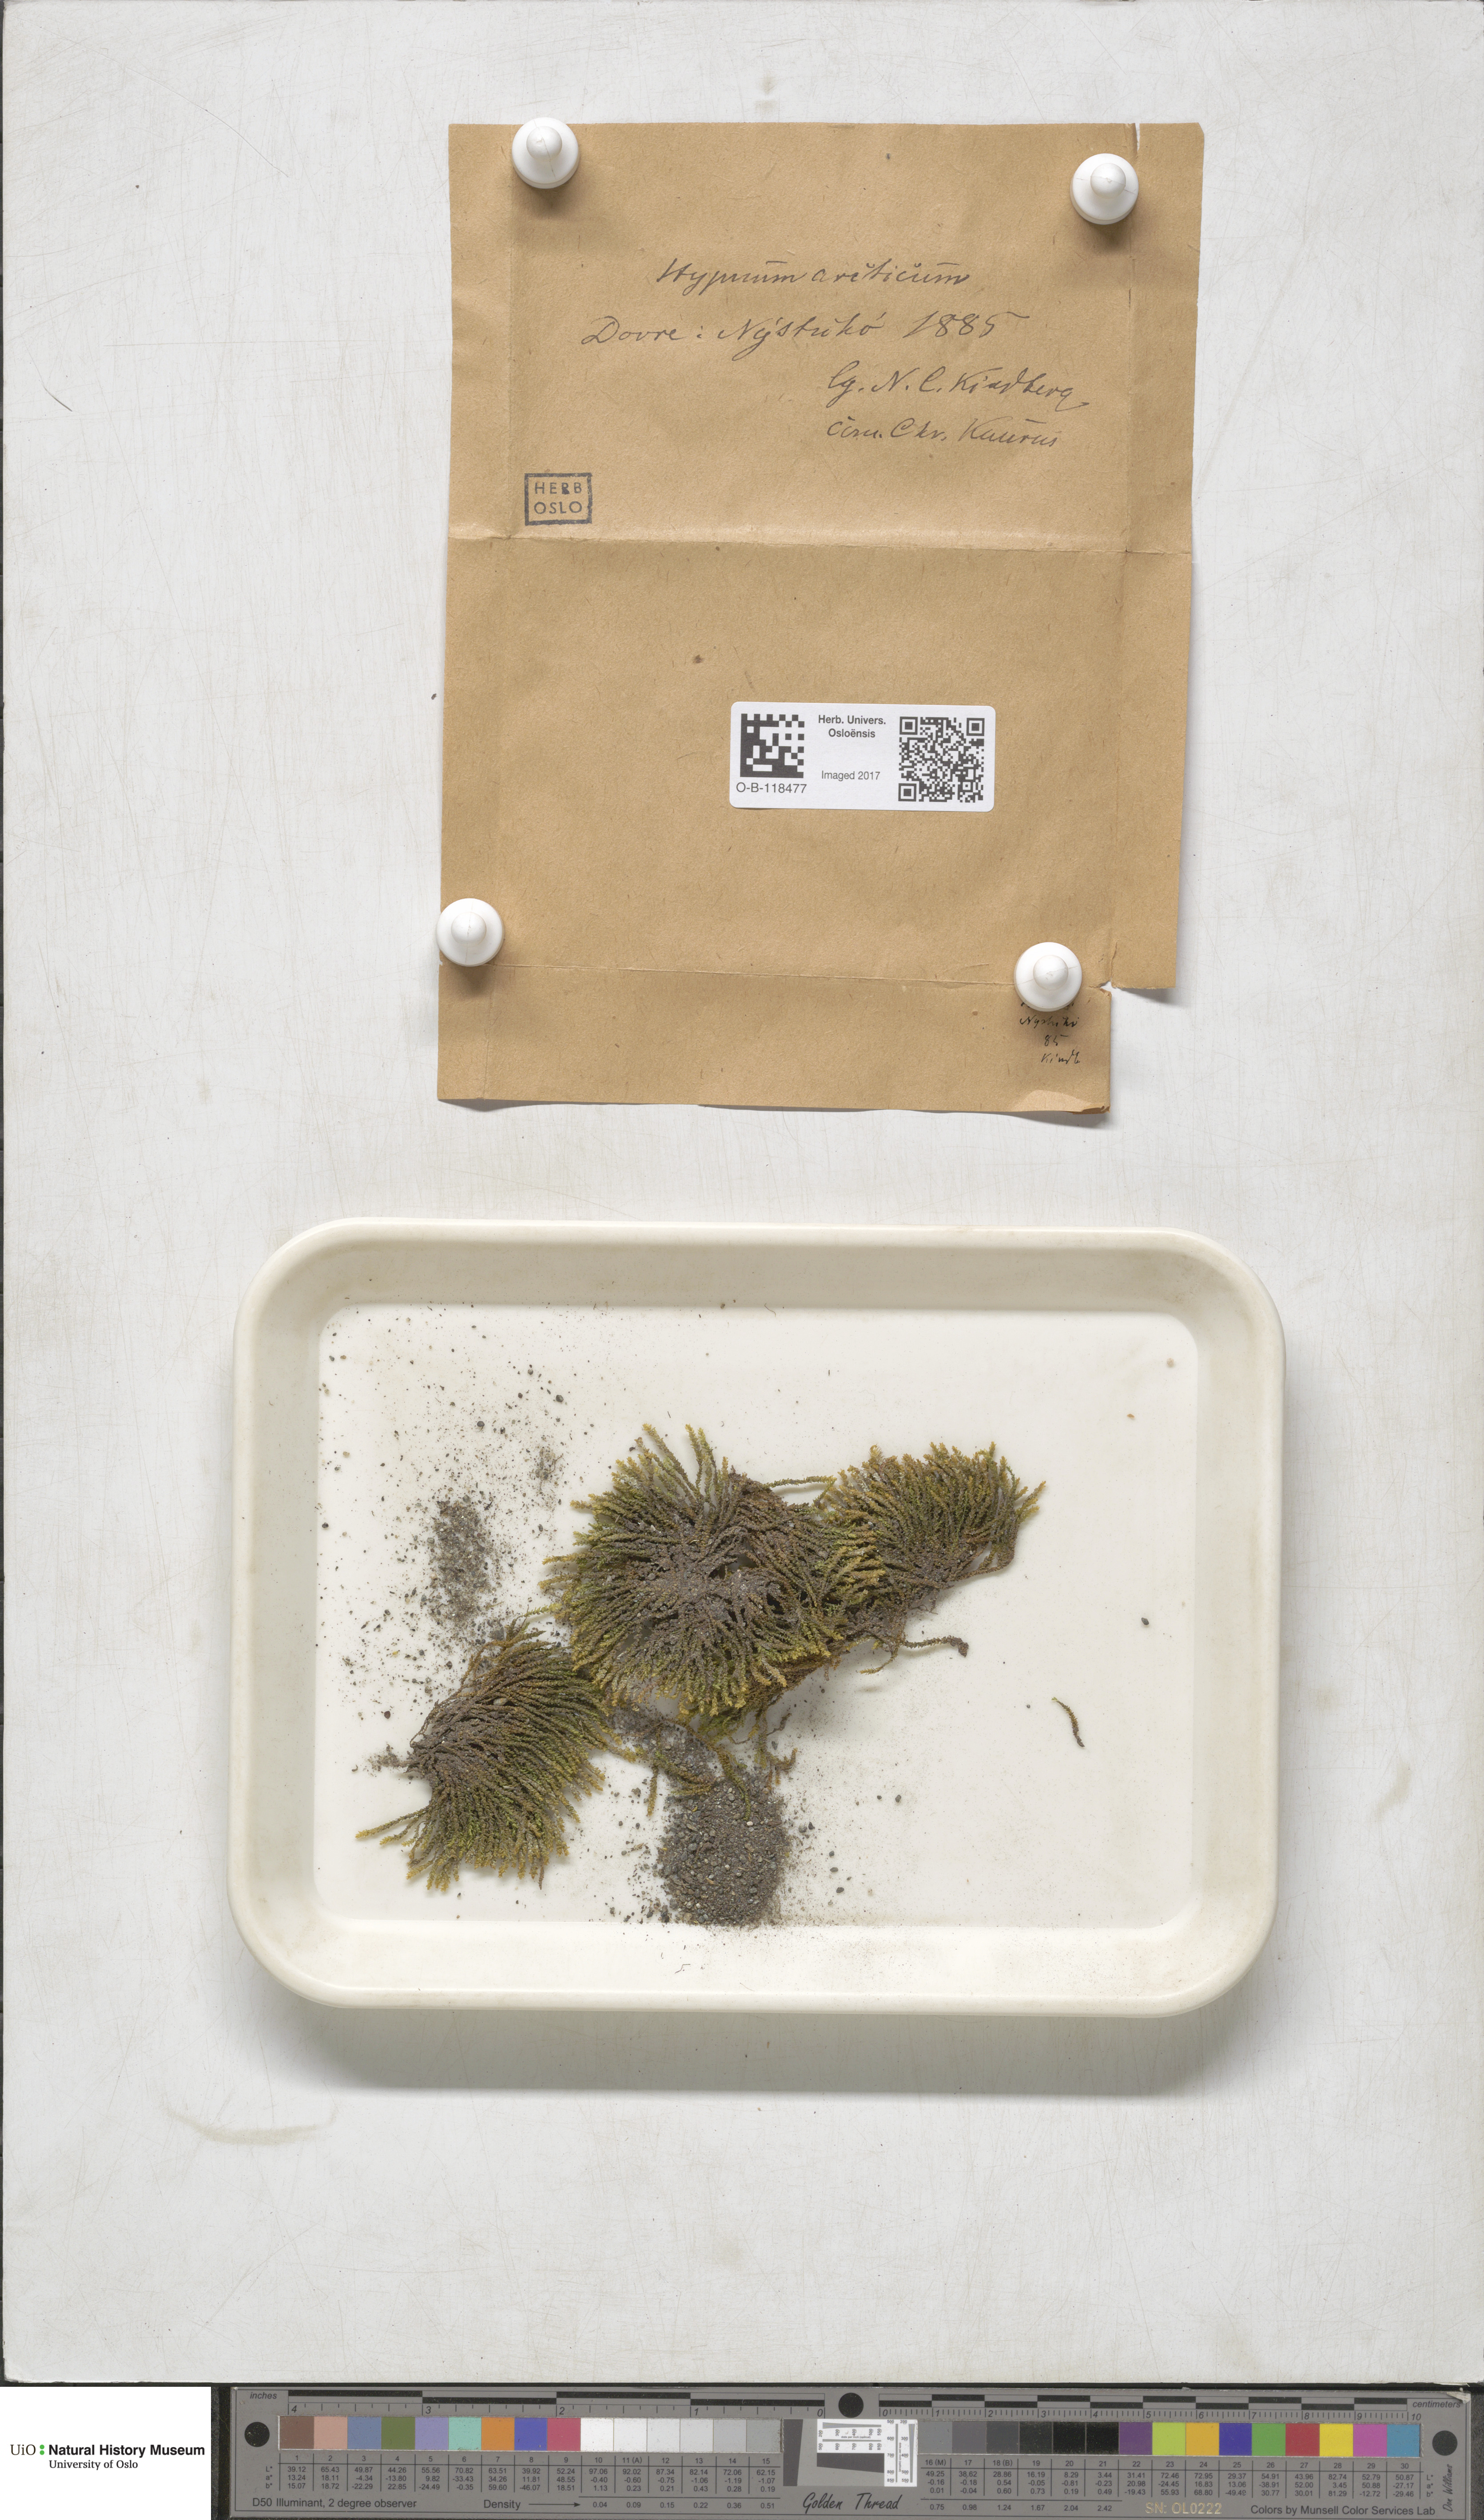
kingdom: Plantae
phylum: Bryophyta
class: Bryopsida
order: Hypnales
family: Amblystegiaceae
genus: Platyhypnum
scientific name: Platyhypnum smithii
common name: Arctic brook-moss
